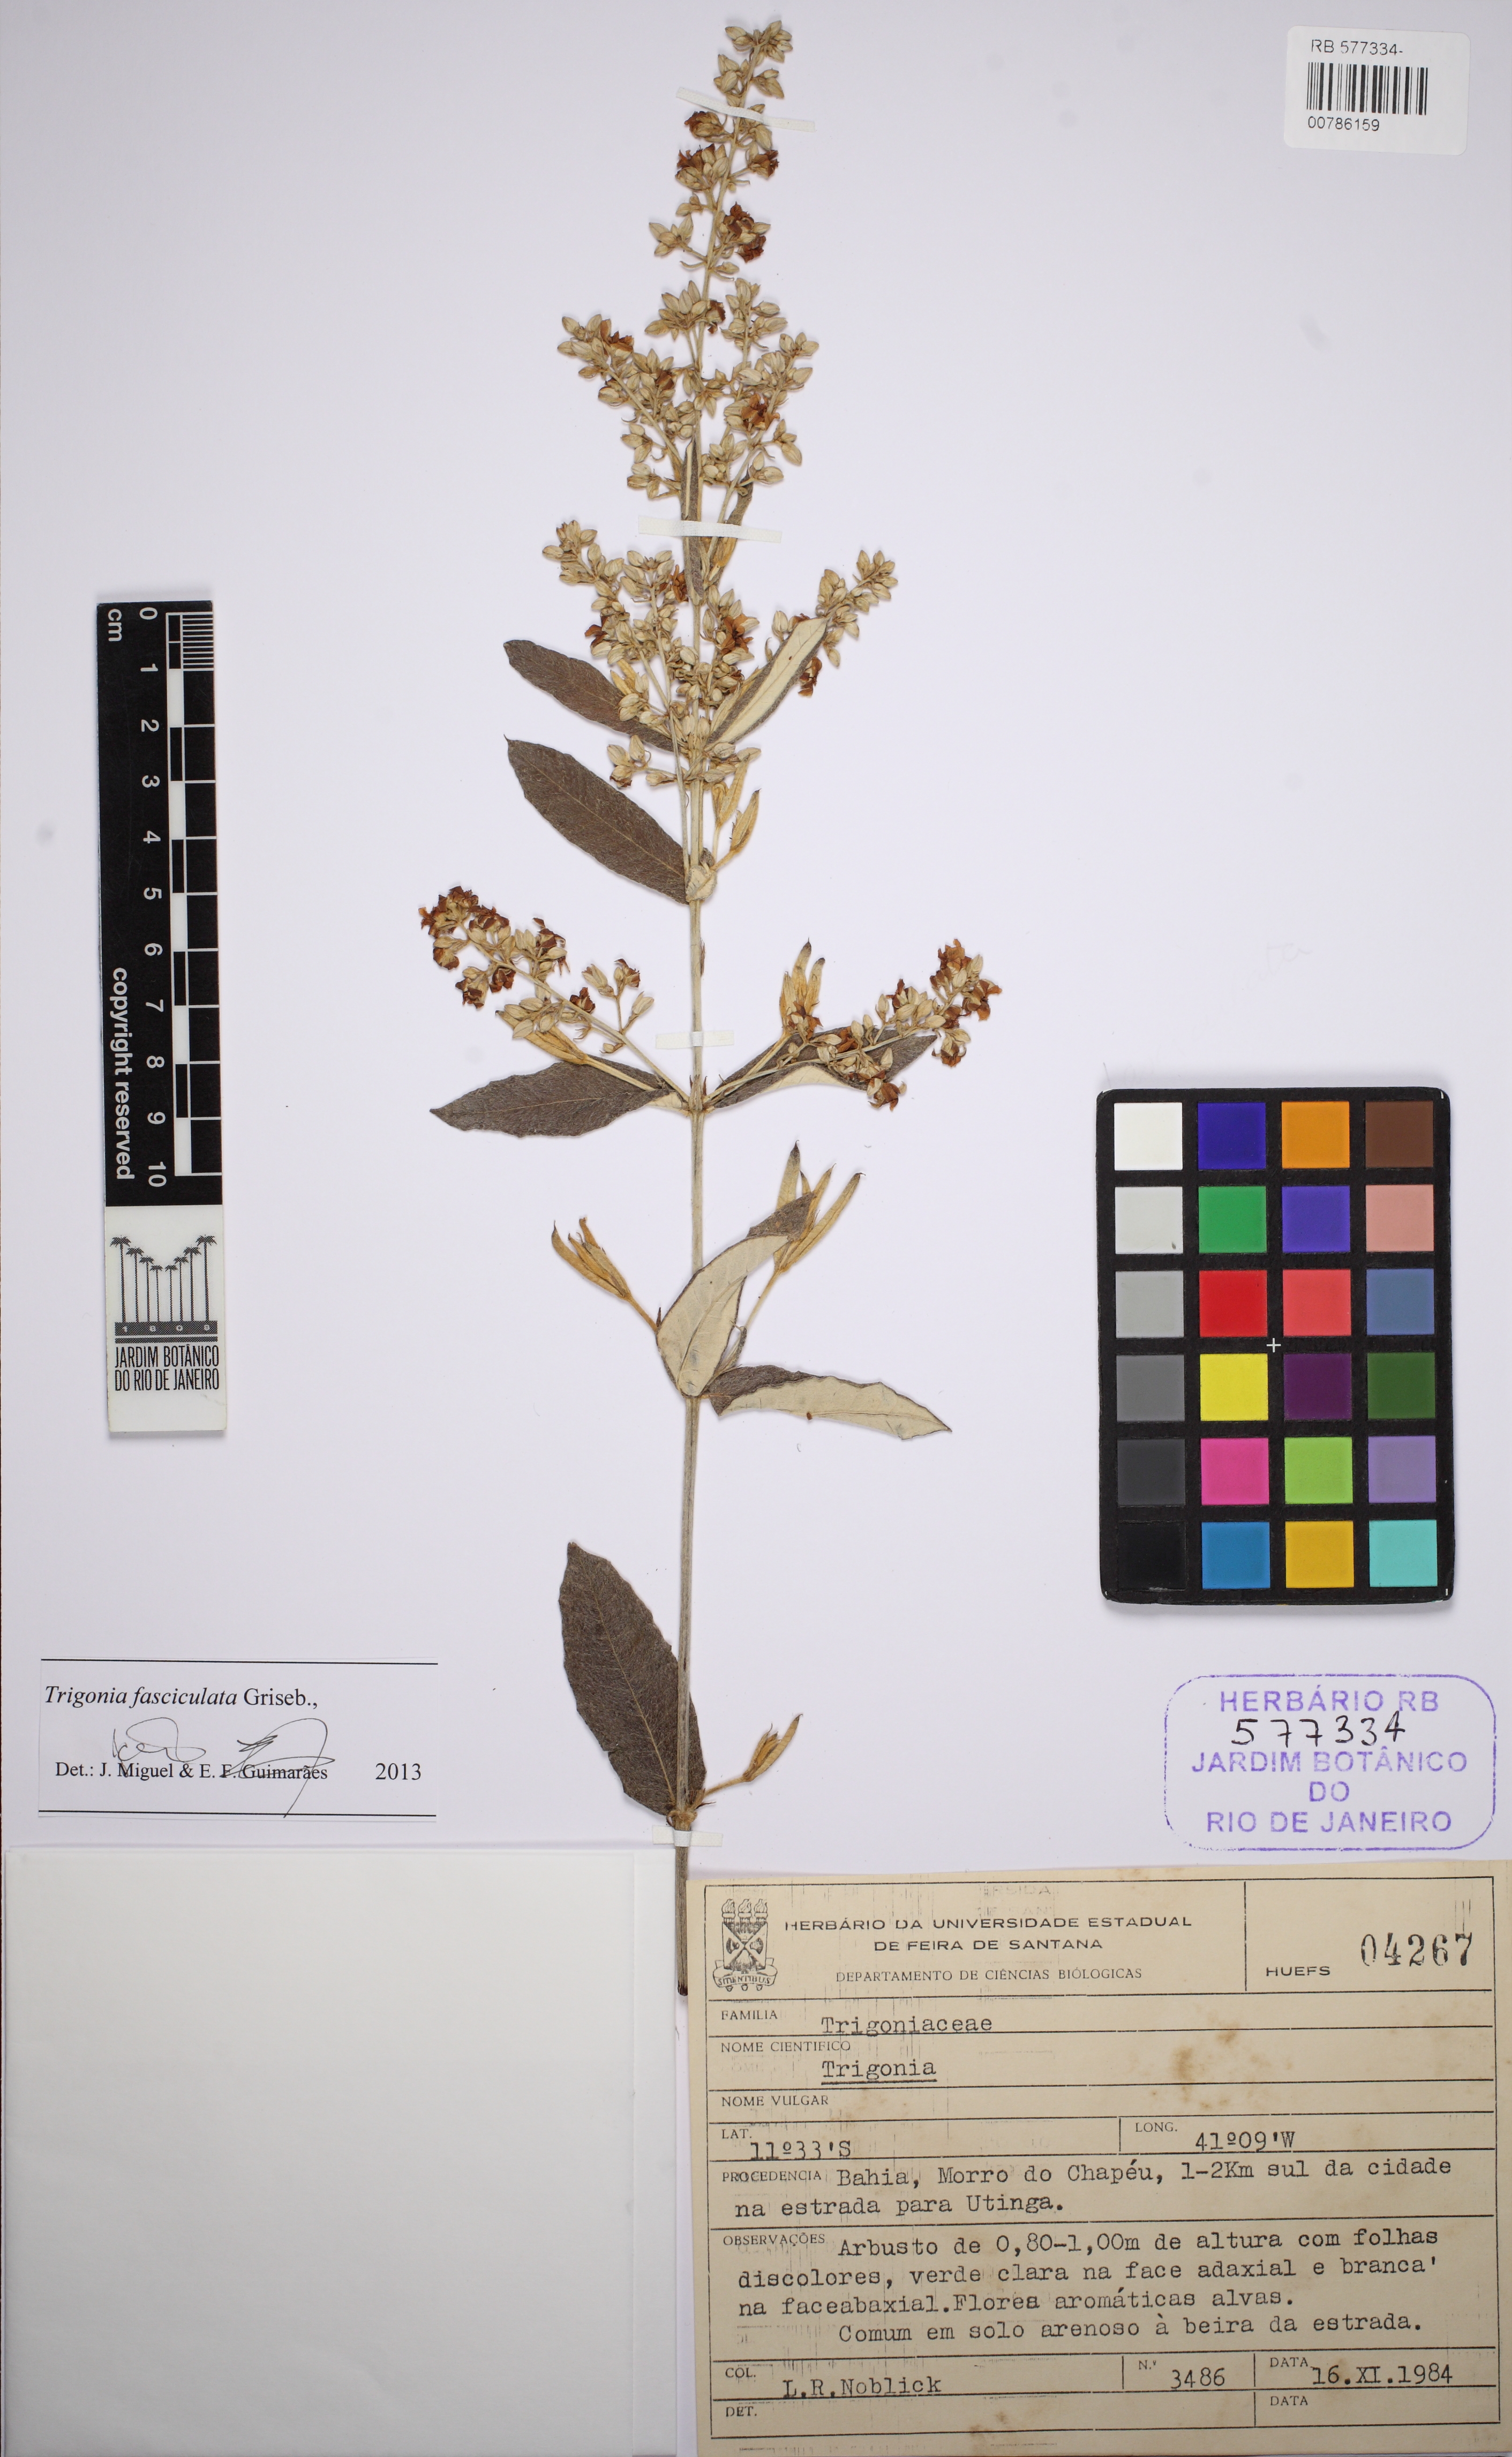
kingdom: Plantae
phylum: Tracheophyta
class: Magnoliopsida
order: Malpighiales
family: Trigoniaceae
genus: Trigonia
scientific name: Trigonia nivea
